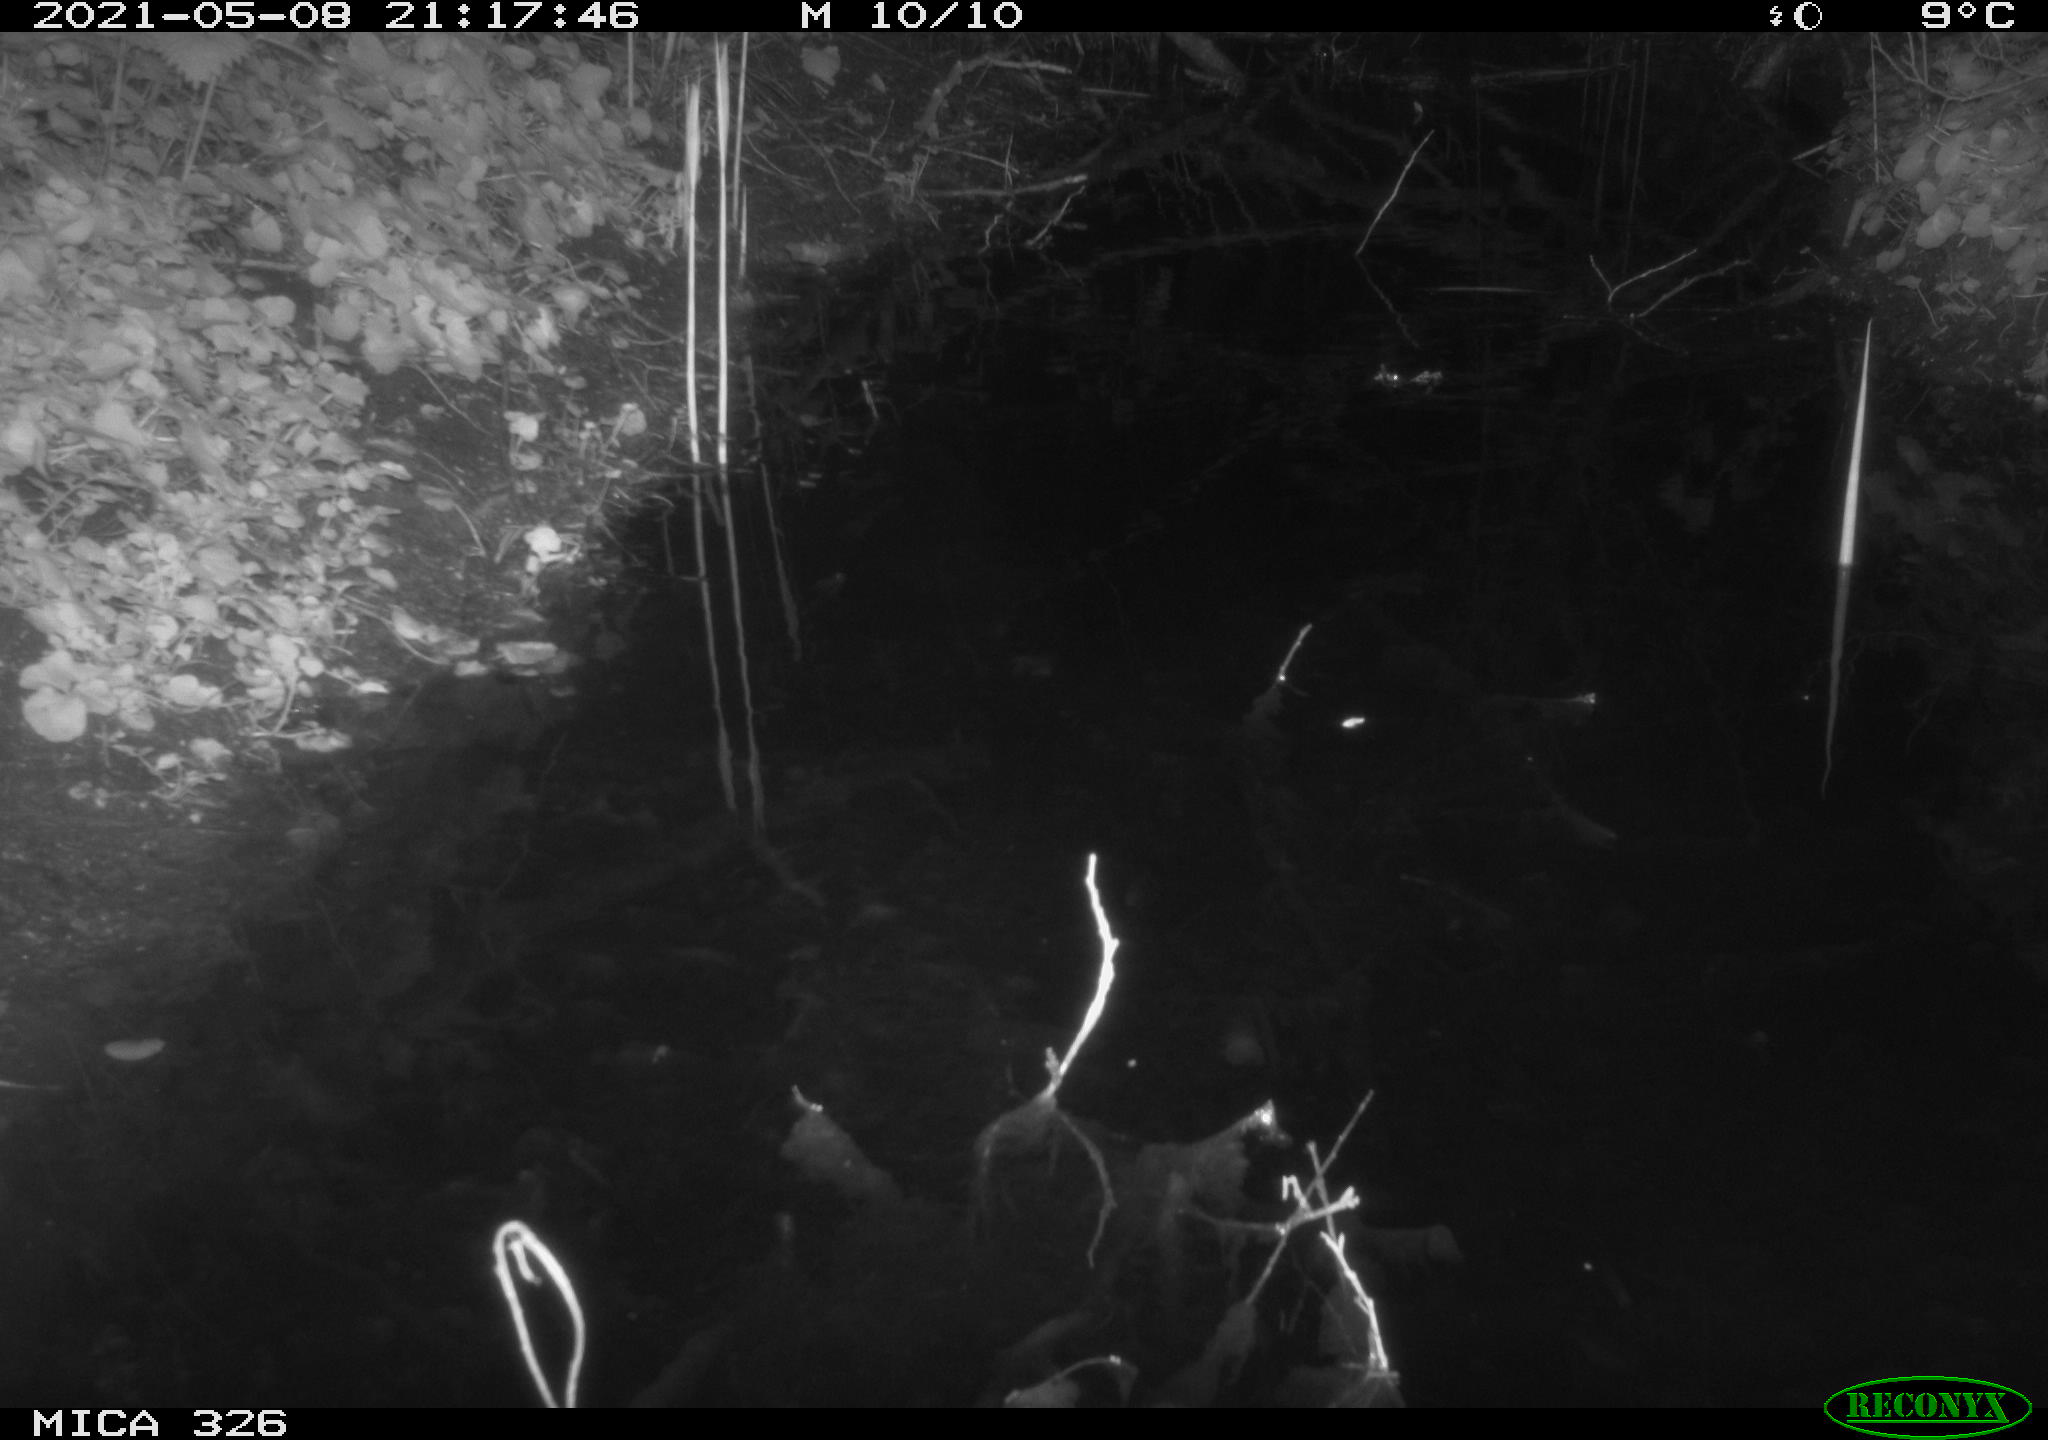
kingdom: Animalia
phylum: Chordata
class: Mammalia
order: Rodentia
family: Muridae
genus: Rattus
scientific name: Rattus norvegicus
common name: Brown rat
